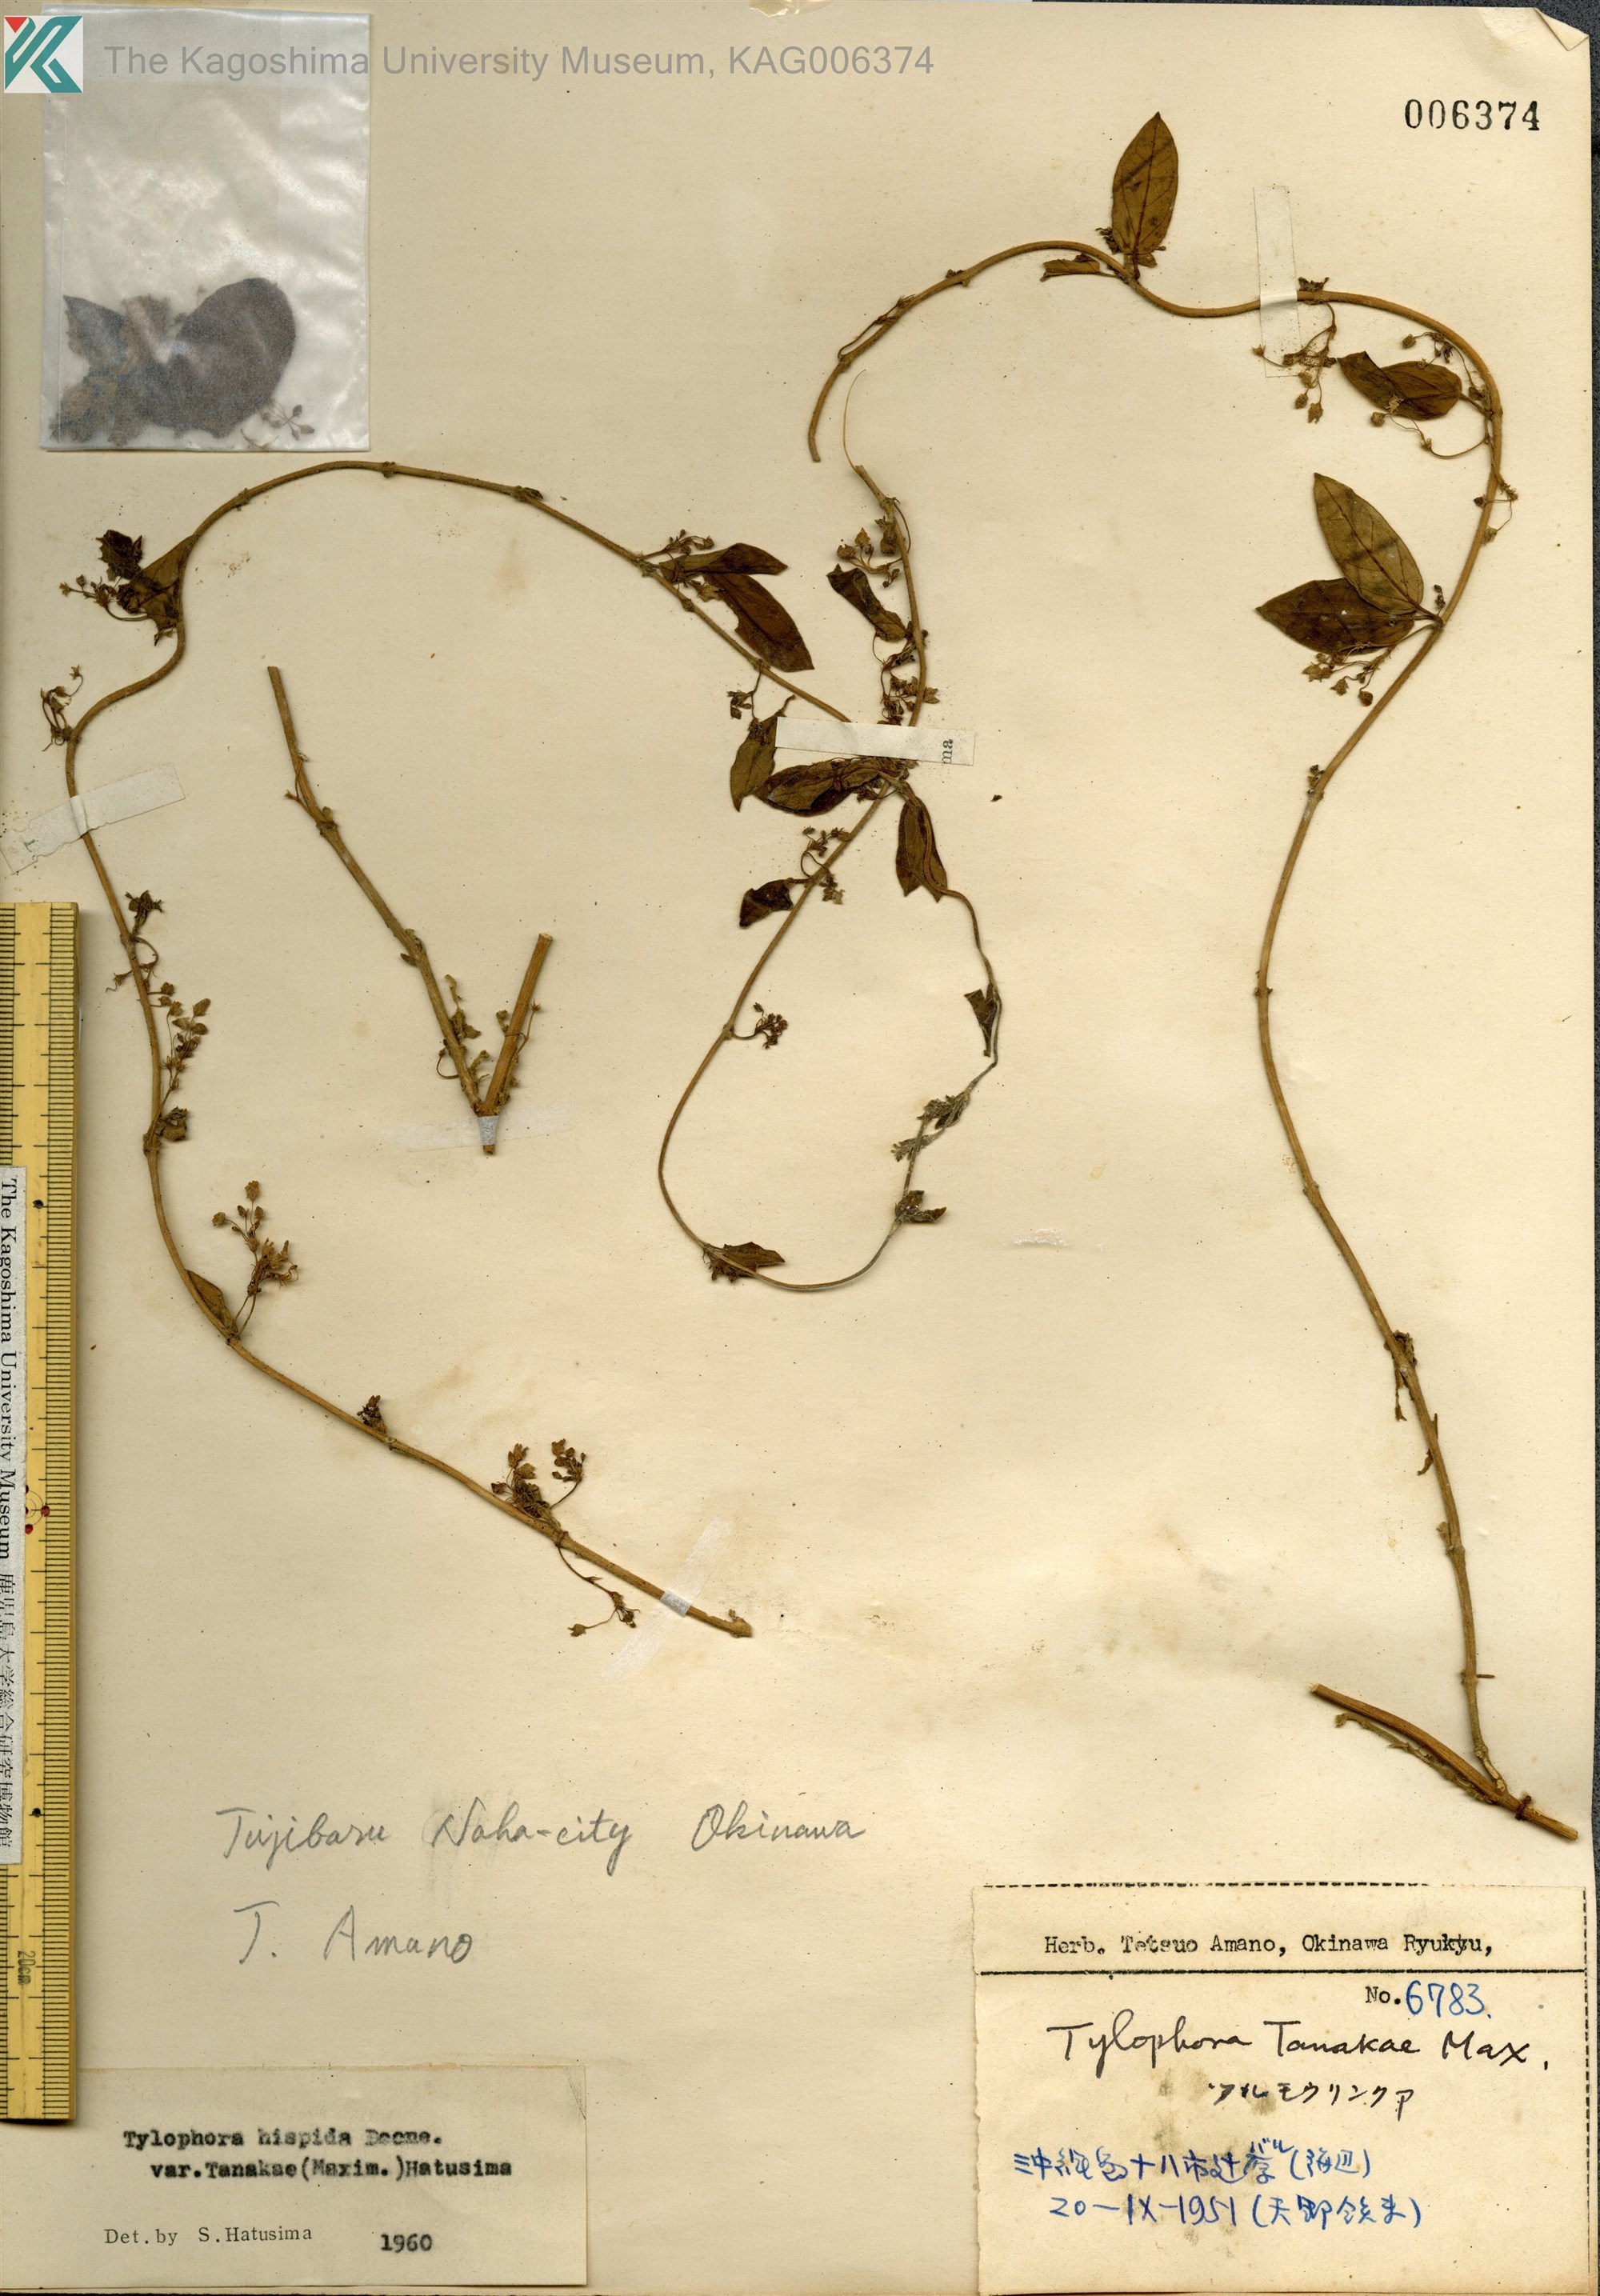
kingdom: Plantae
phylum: Tracheophyta
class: Magnoliopsida
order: Gentianales
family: Apocynaceae
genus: Vincetoxicum
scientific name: Vincetoxicum hirsutum
